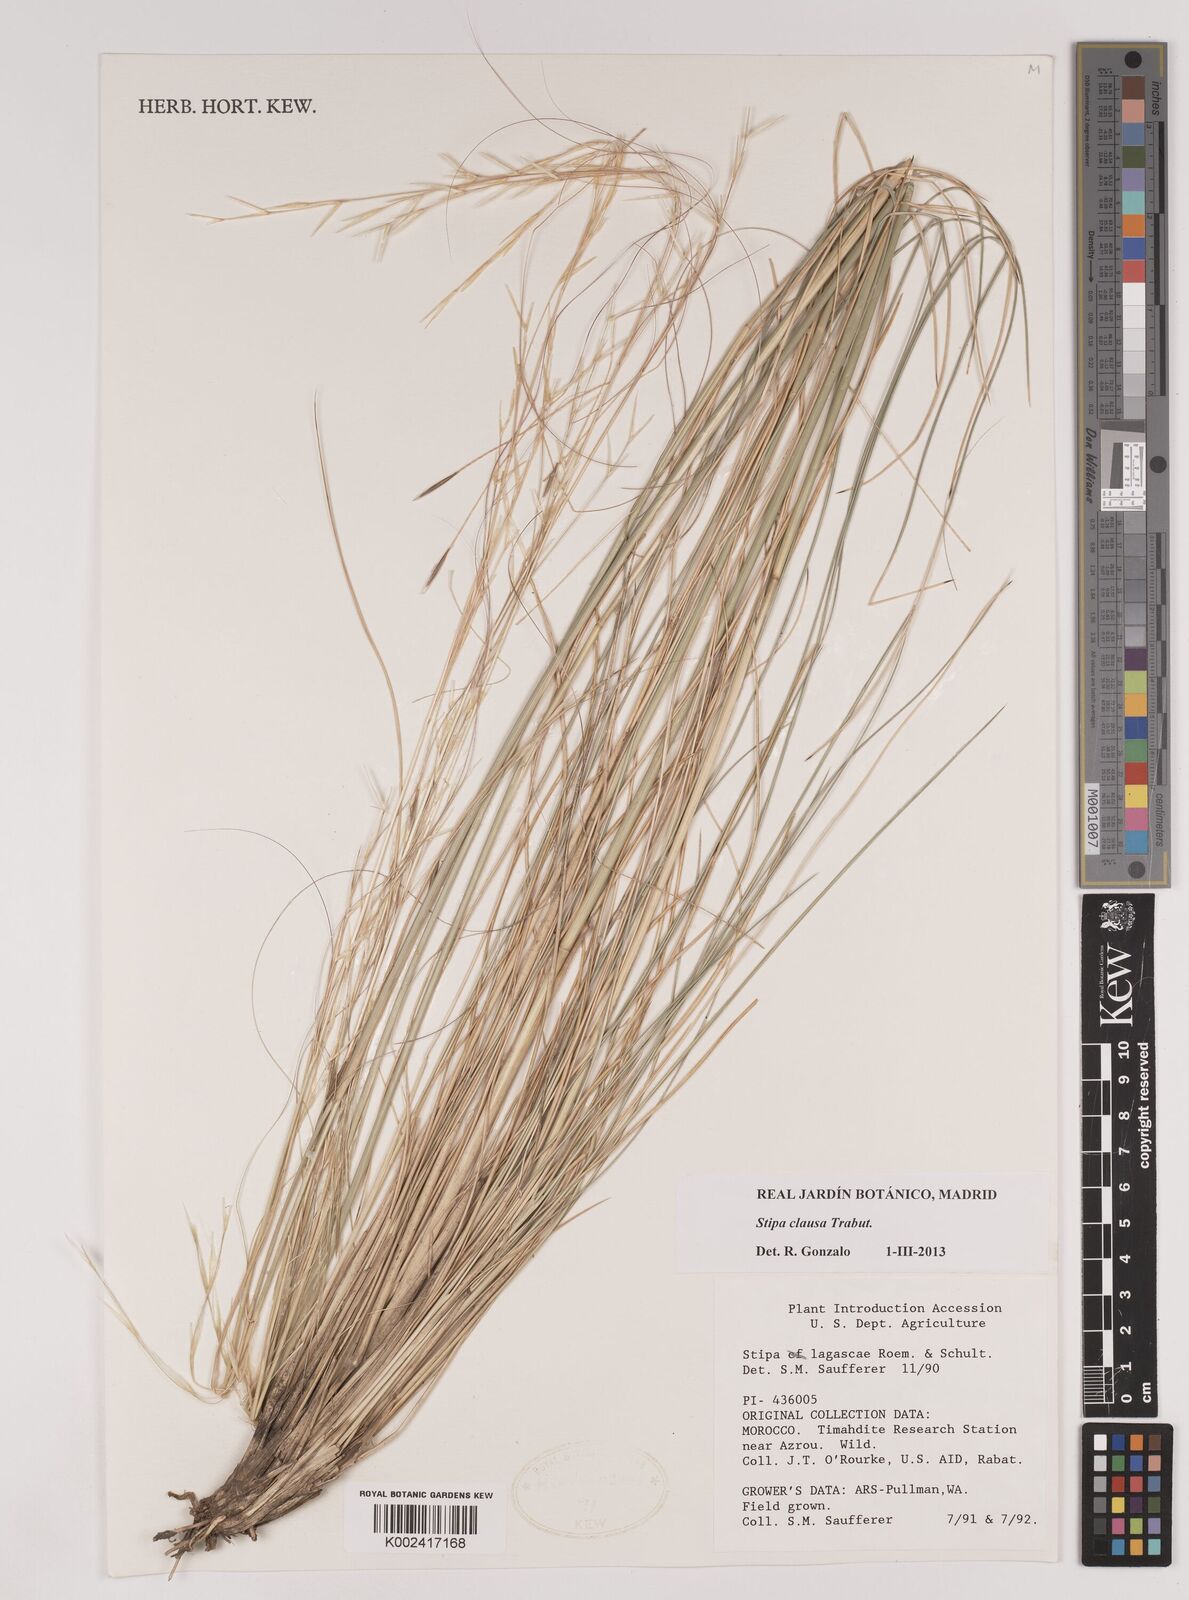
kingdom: Plantae
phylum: Tracheophyta
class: Liliopsida
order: Poales
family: Poaceae
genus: Stipa
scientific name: Stipa lagascae
